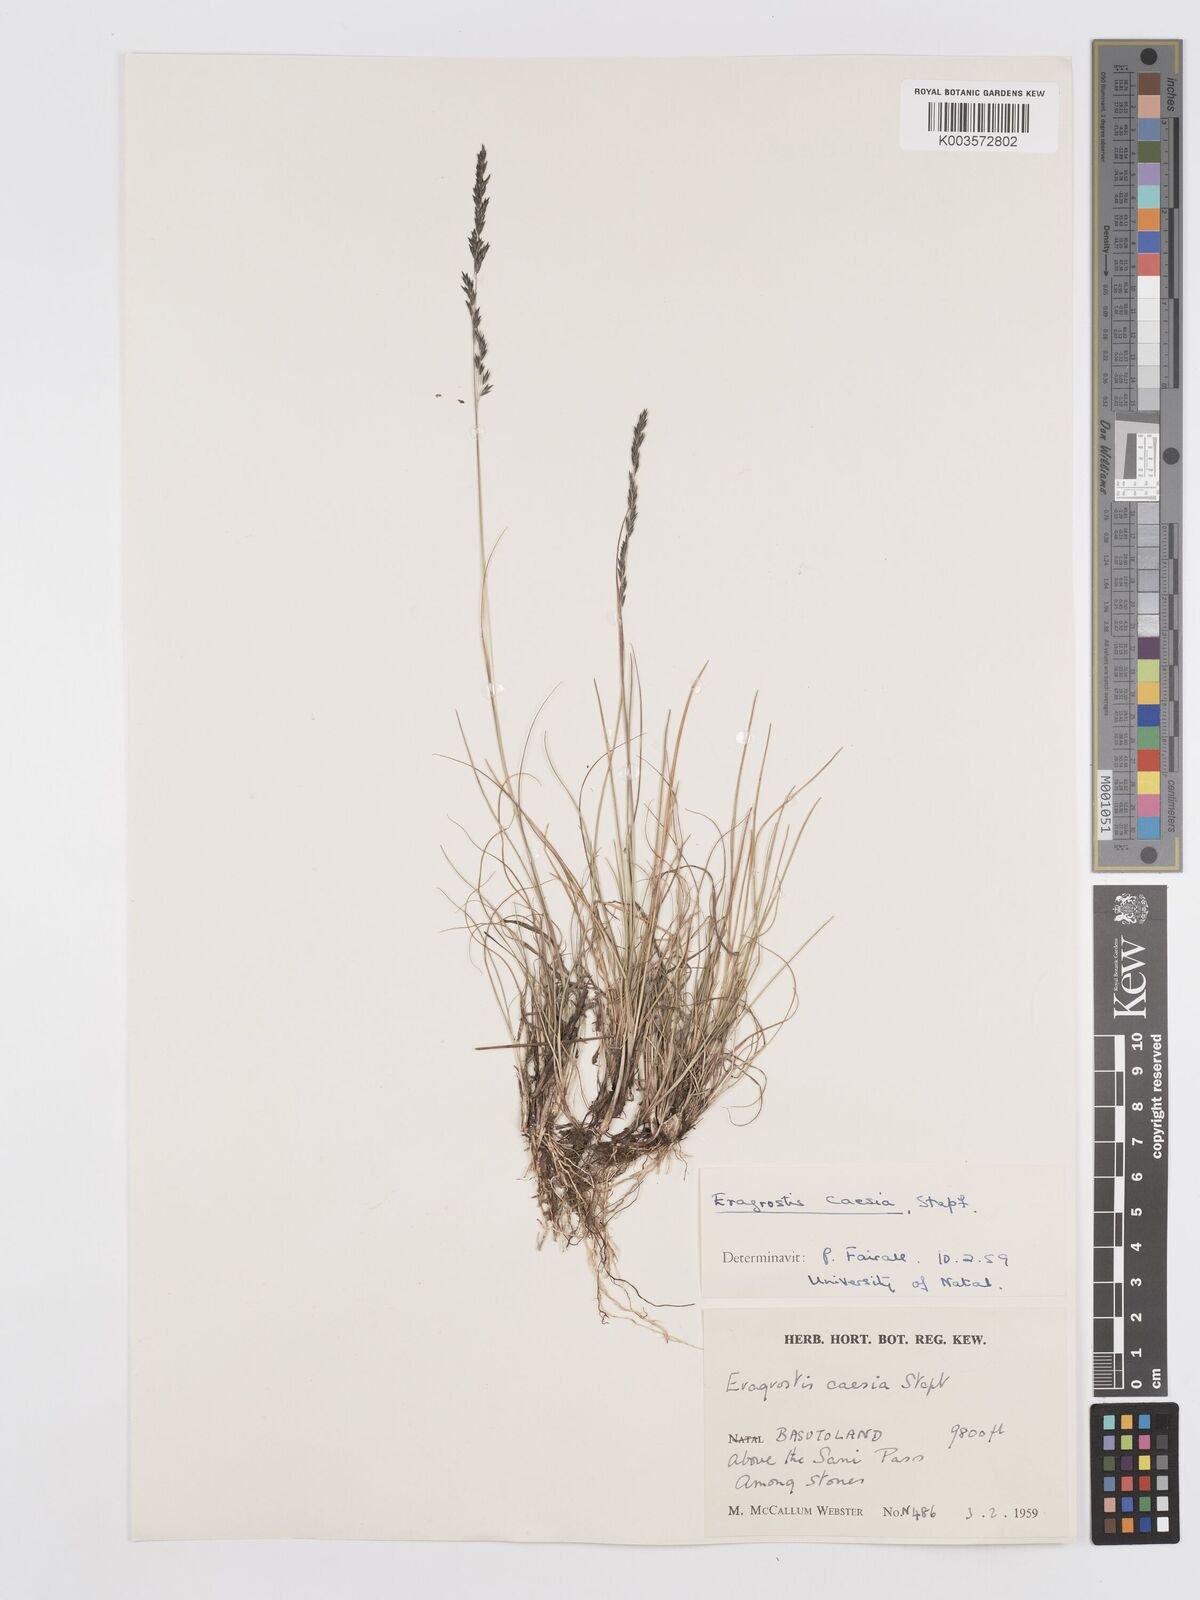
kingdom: Plantae
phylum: Tracheophyta
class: Liliopsida
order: Poales
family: Poaceae
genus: Eragrostis
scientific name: Eragrostis caesia
